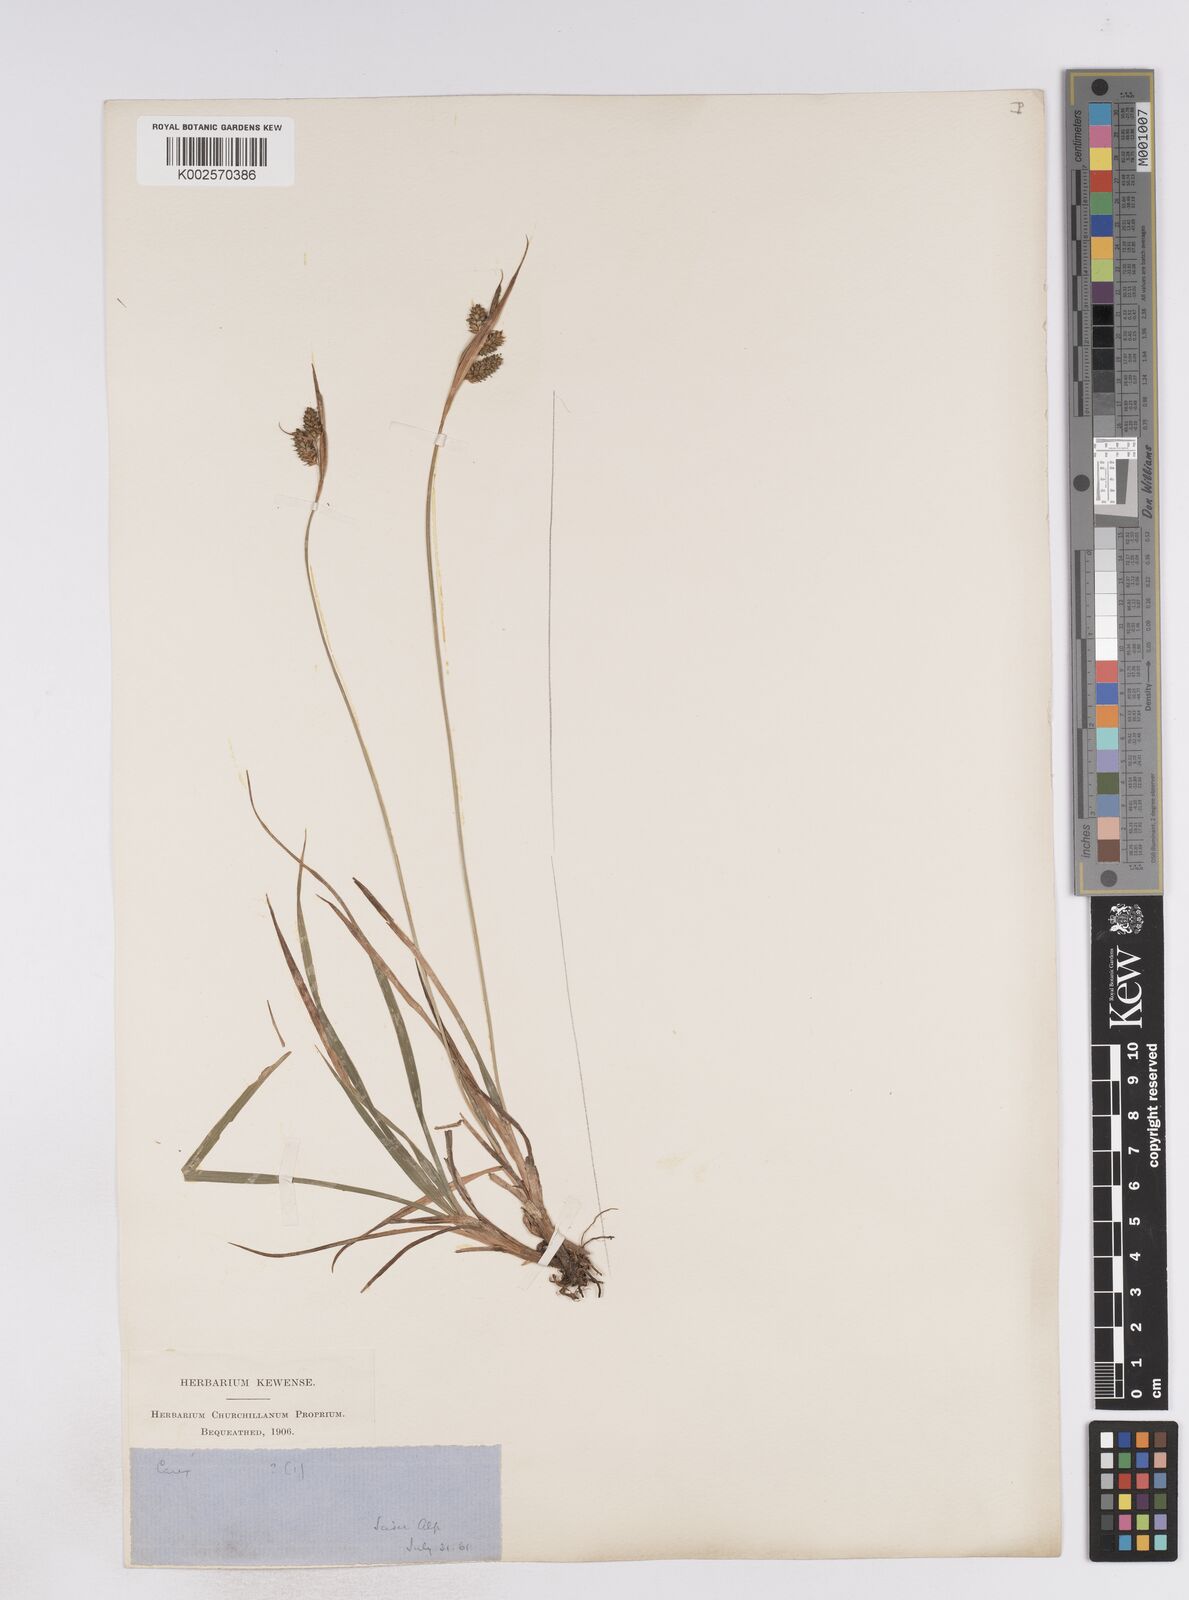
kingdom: Plantae
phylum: Tracheophyta
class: Liliopsida
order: Poales
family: Cyperaceae
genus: Carex
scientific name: Carex pallescens
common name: Pale sedge
